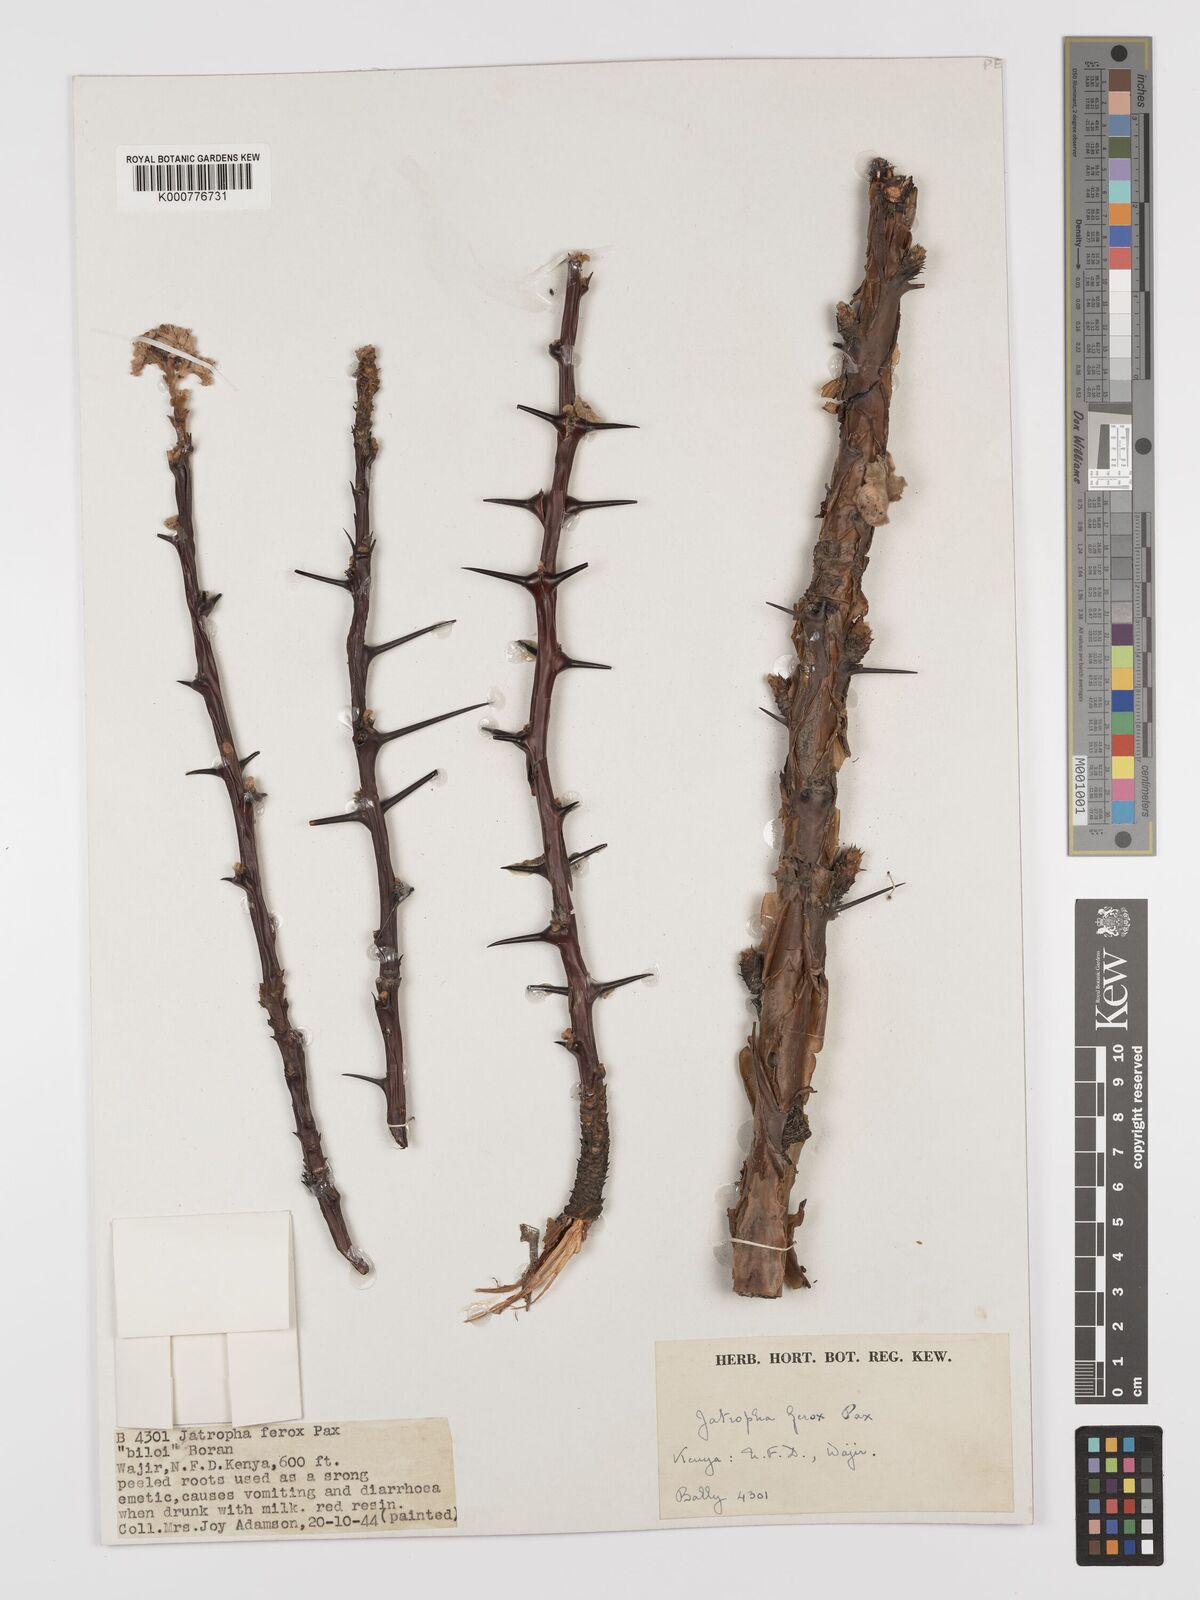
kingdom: Plantae
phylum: Tracheophyta
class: Magnoliopsida
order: Malpighiales
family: Euphorbiaceae
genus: Jatropha
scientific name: Jatropha dichtar
